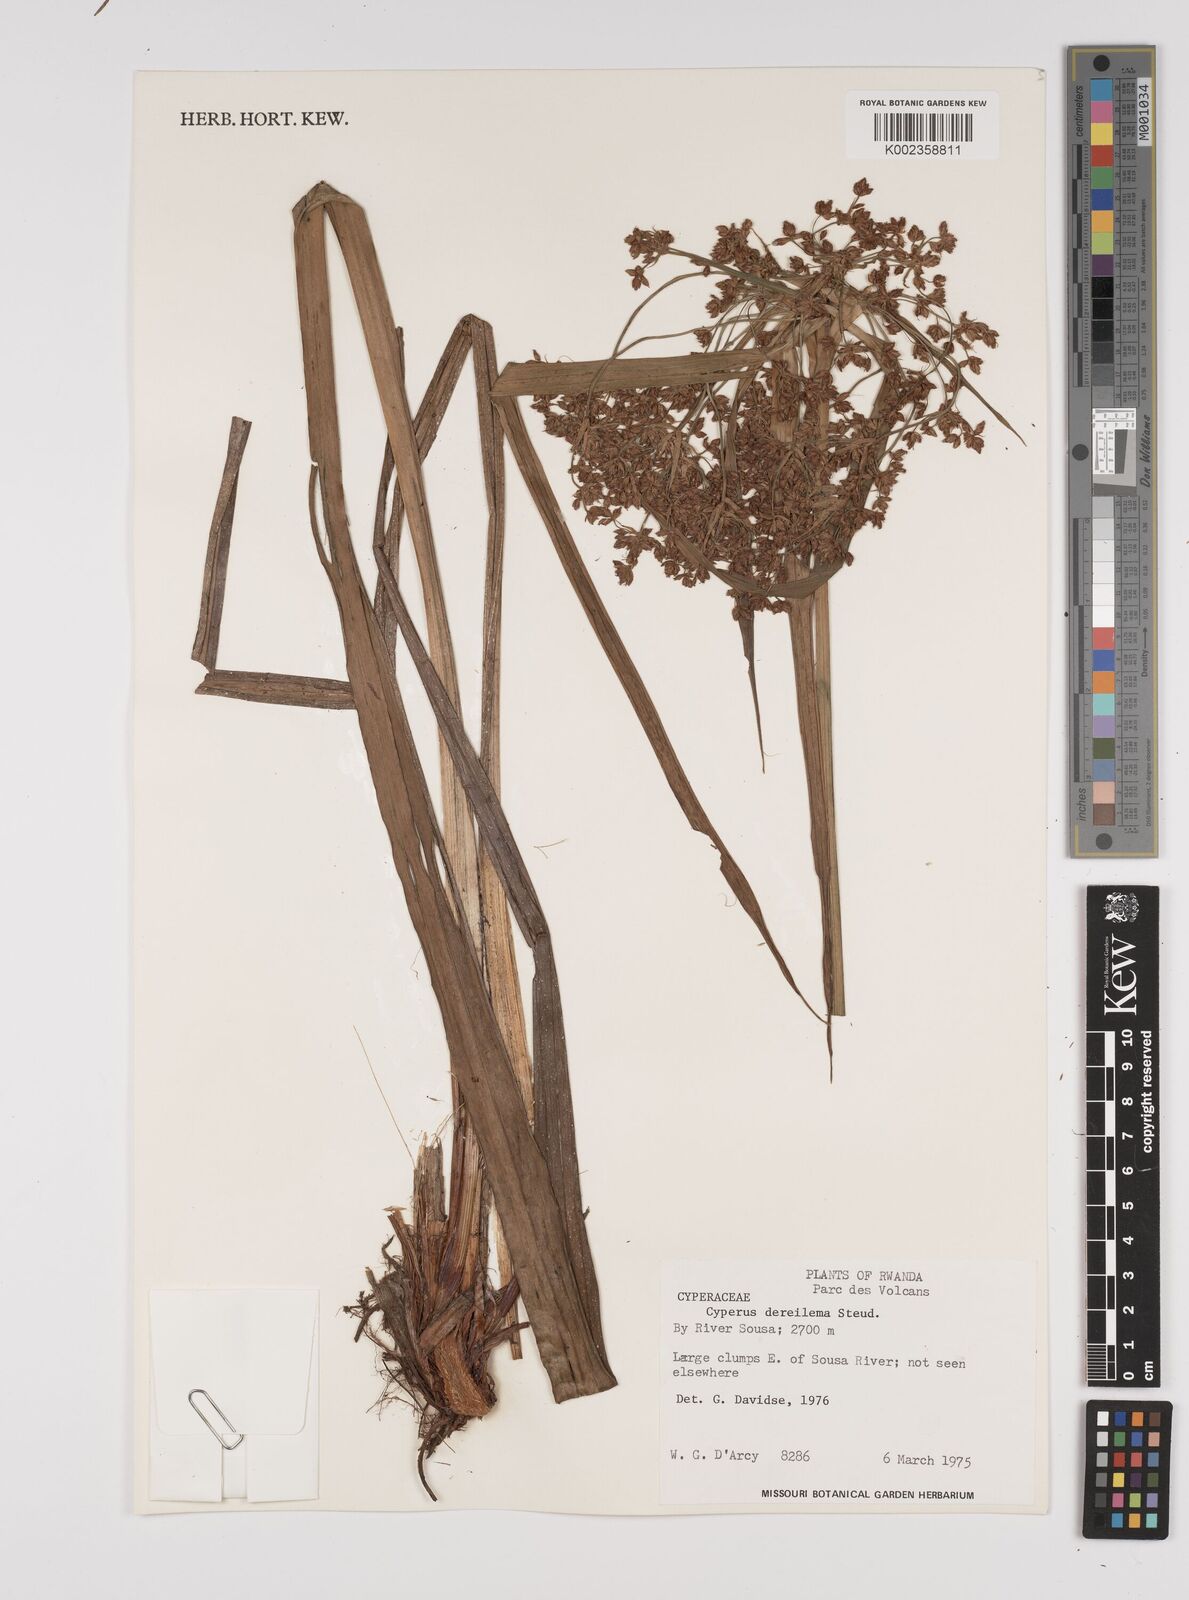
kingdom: Plantae
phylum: Tracheophyta
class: Liliopsida
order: Poales
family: Cyperaceae
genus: Cyperus
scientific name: Cyperus derreilema
